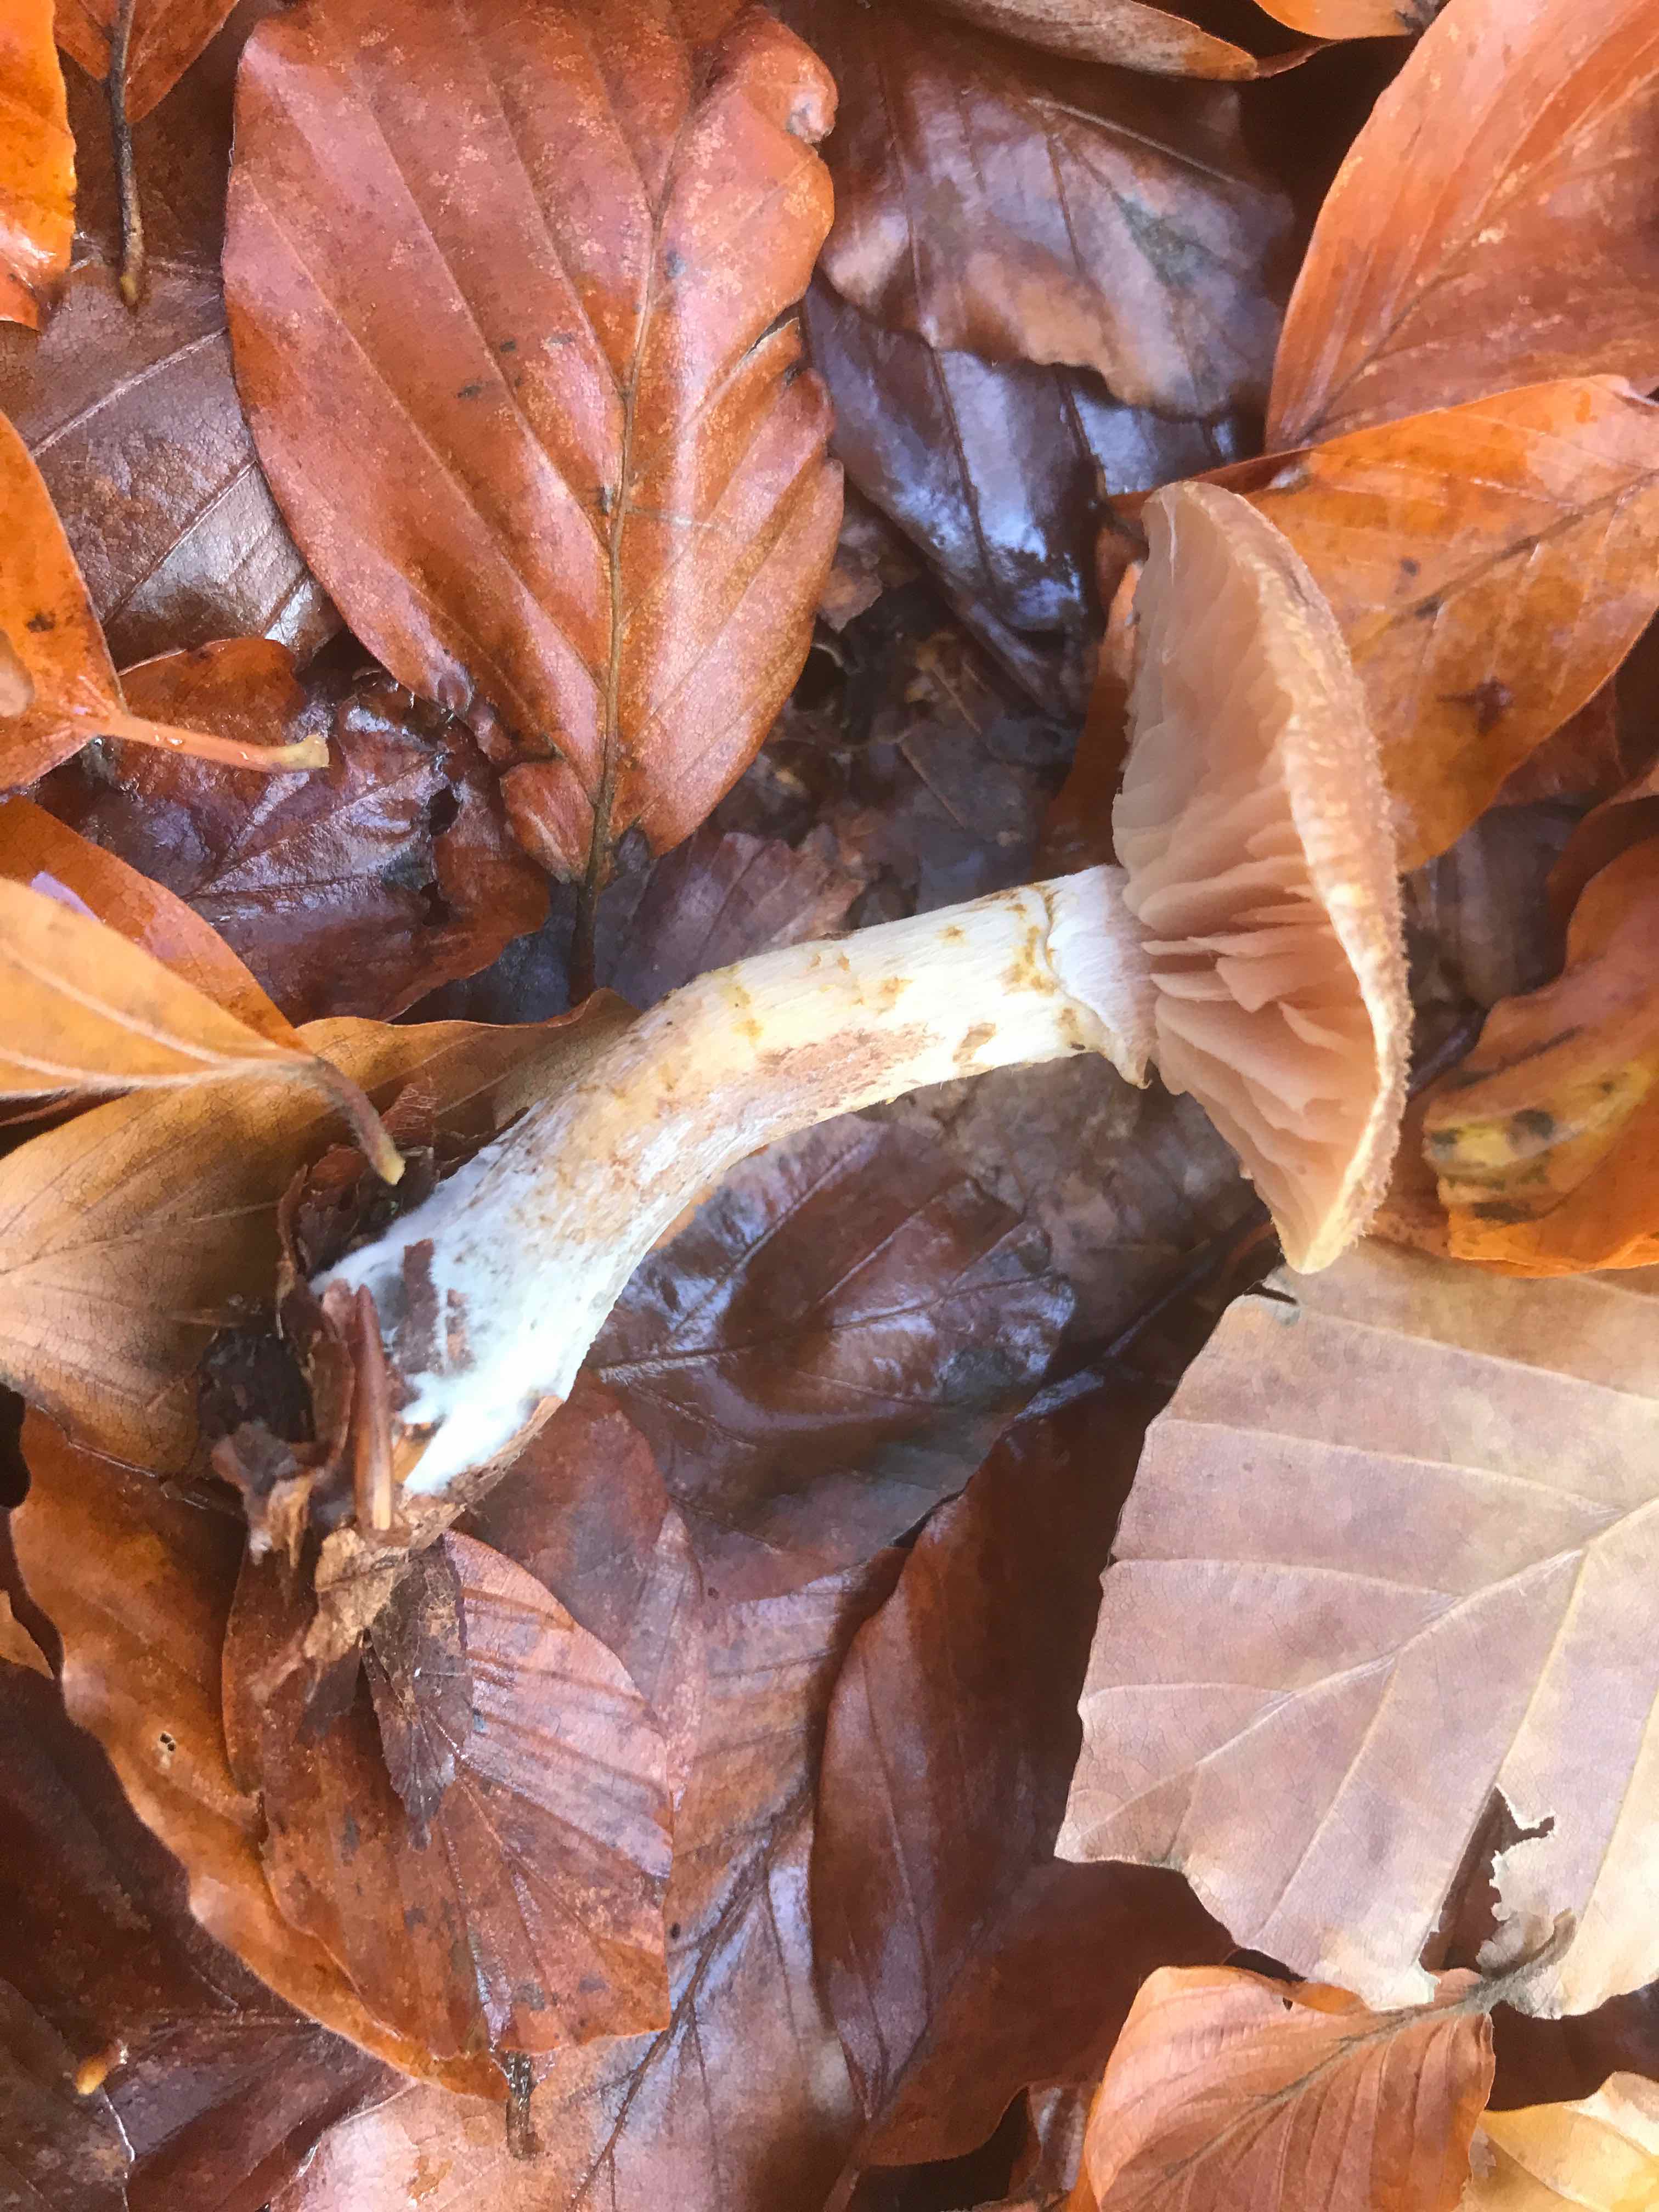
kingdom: Fungi
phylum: Basidiomycota
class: Agaricomycetes
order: Agaricales
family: Physalacriaceae
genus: Armillaria
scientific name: Armillaria lutea
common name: køllestokket honningsvamp
